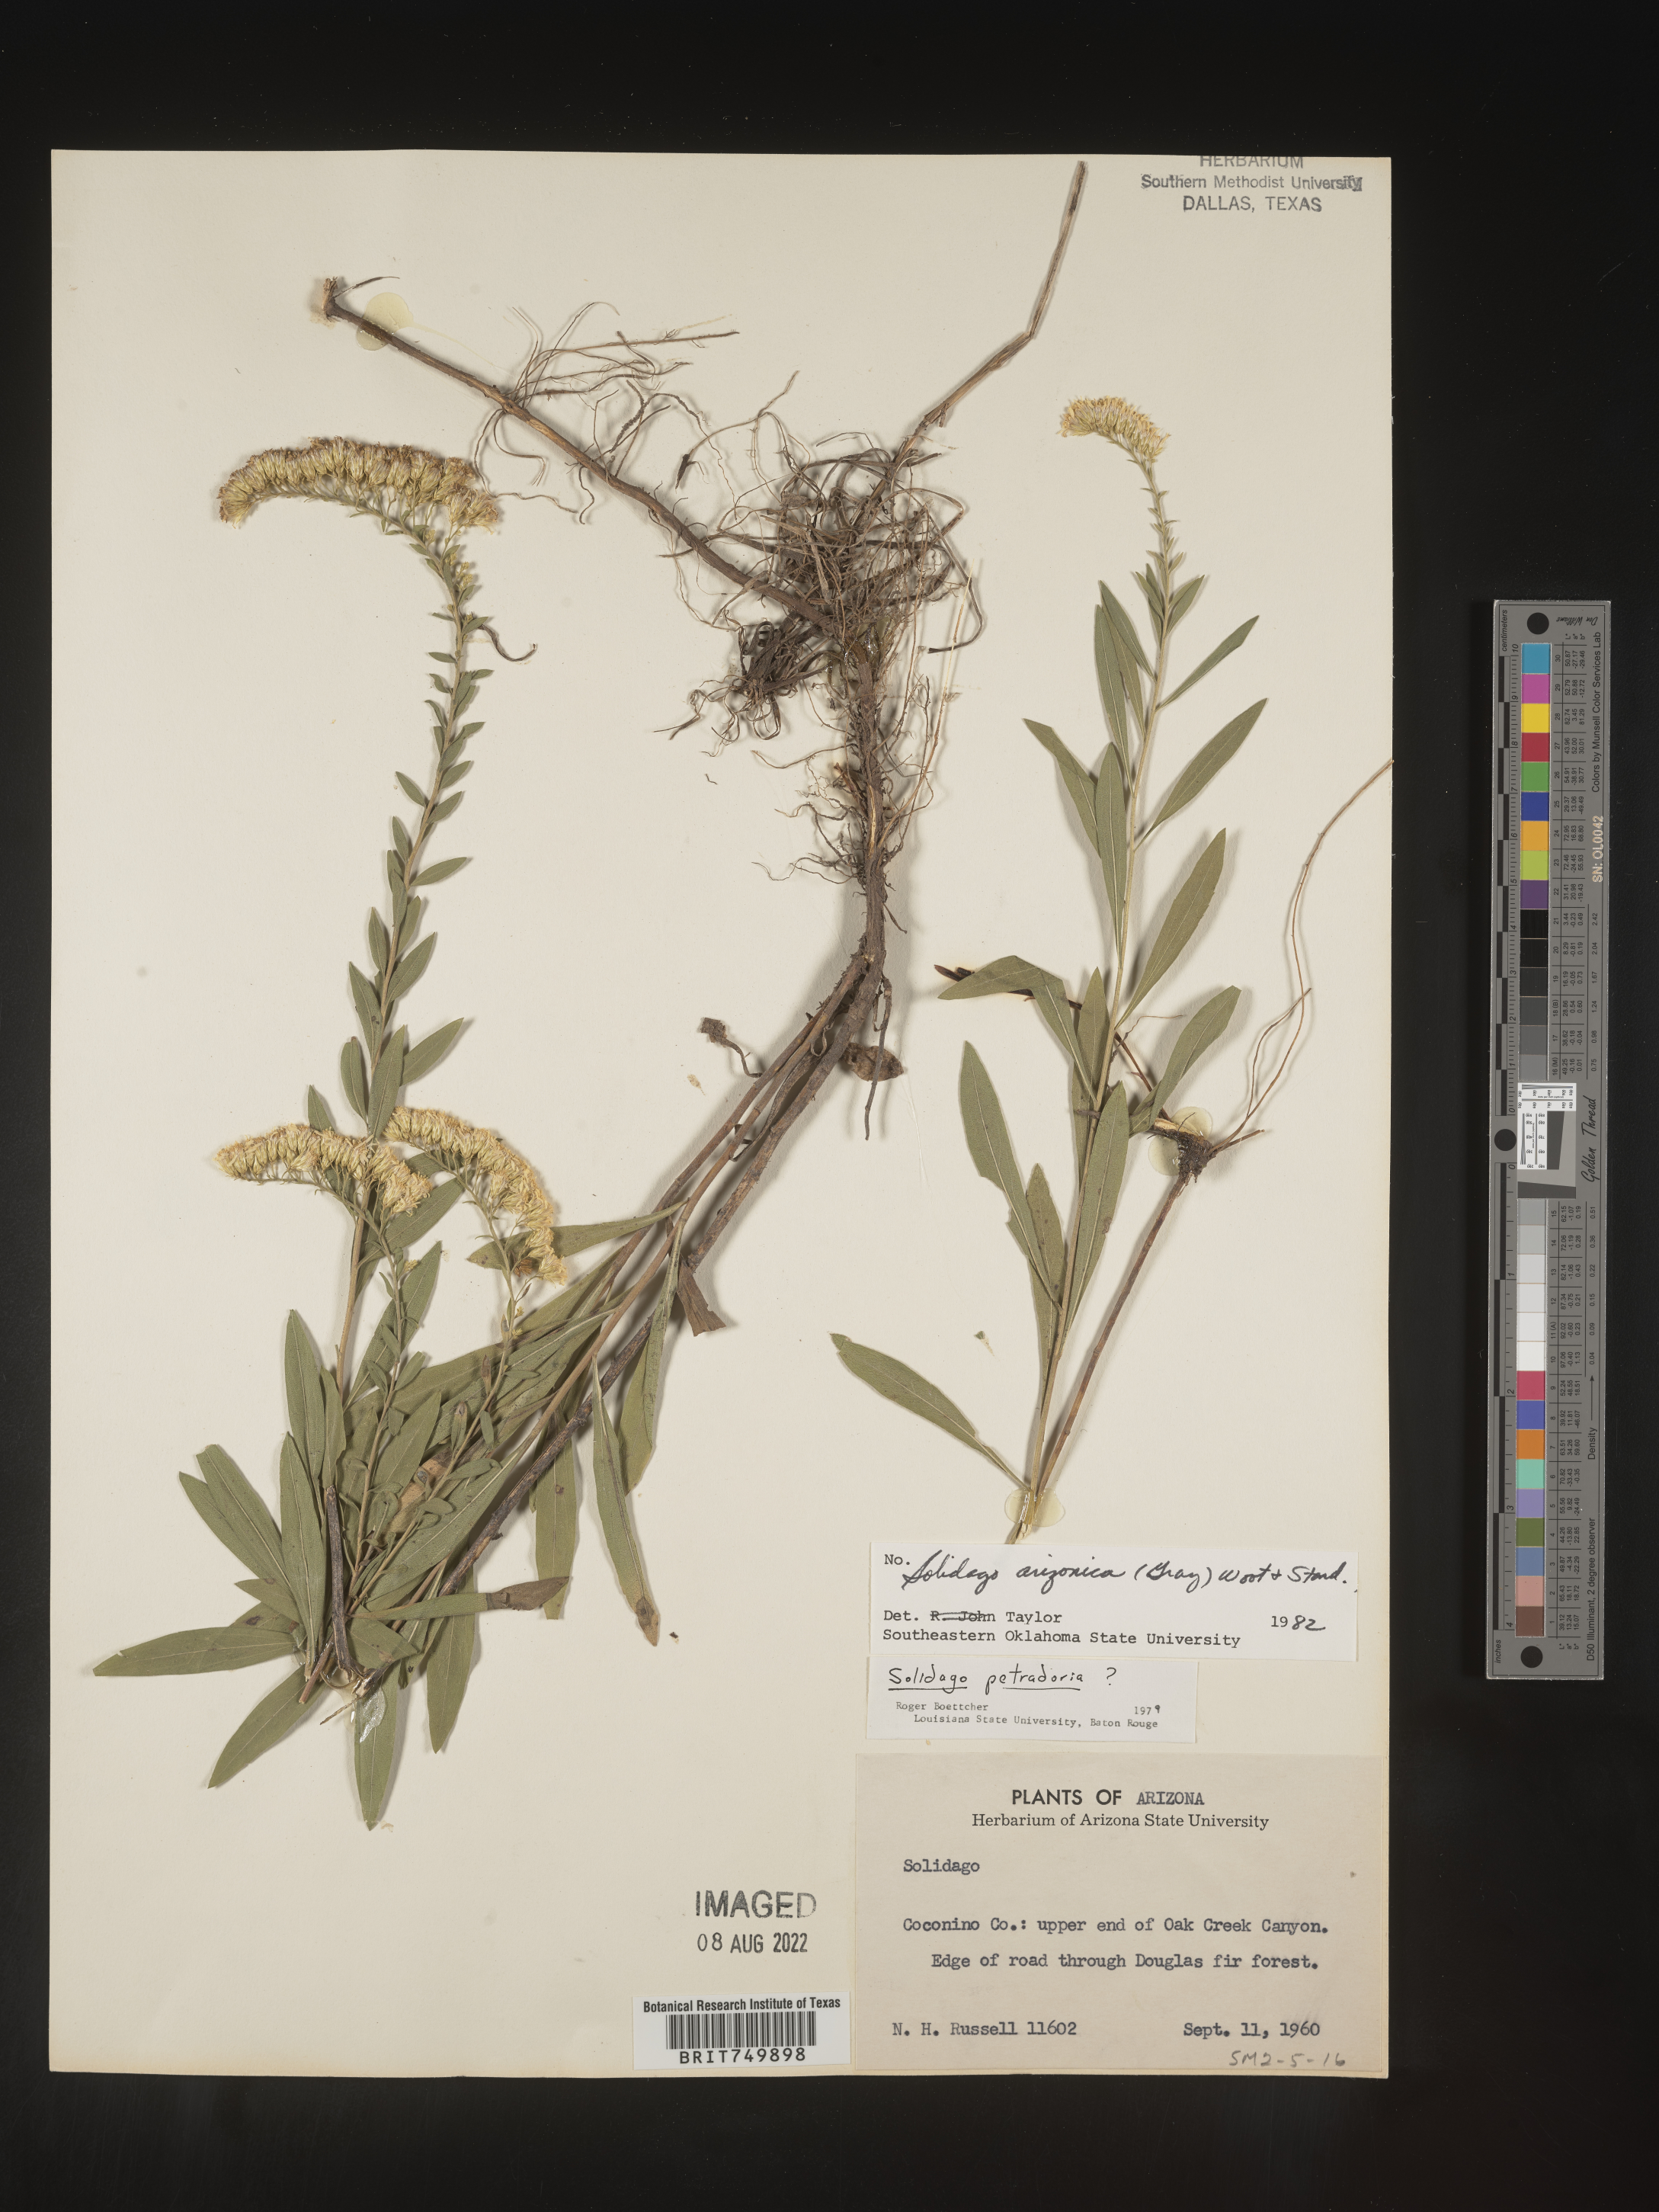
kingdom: Plantae
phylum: Tracheophyta
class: Magnoliopsida
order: Asterales
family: Asteraceae
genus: Solidago
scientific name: Solidago velutina
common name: Three-nerve goldenrod
